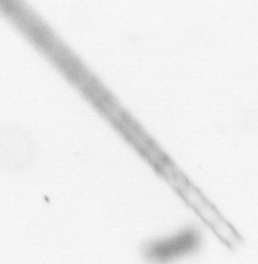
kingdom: Chromista
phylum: Ochrophyta
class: Bacillariophyceae
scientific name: Bacillariophyceae
